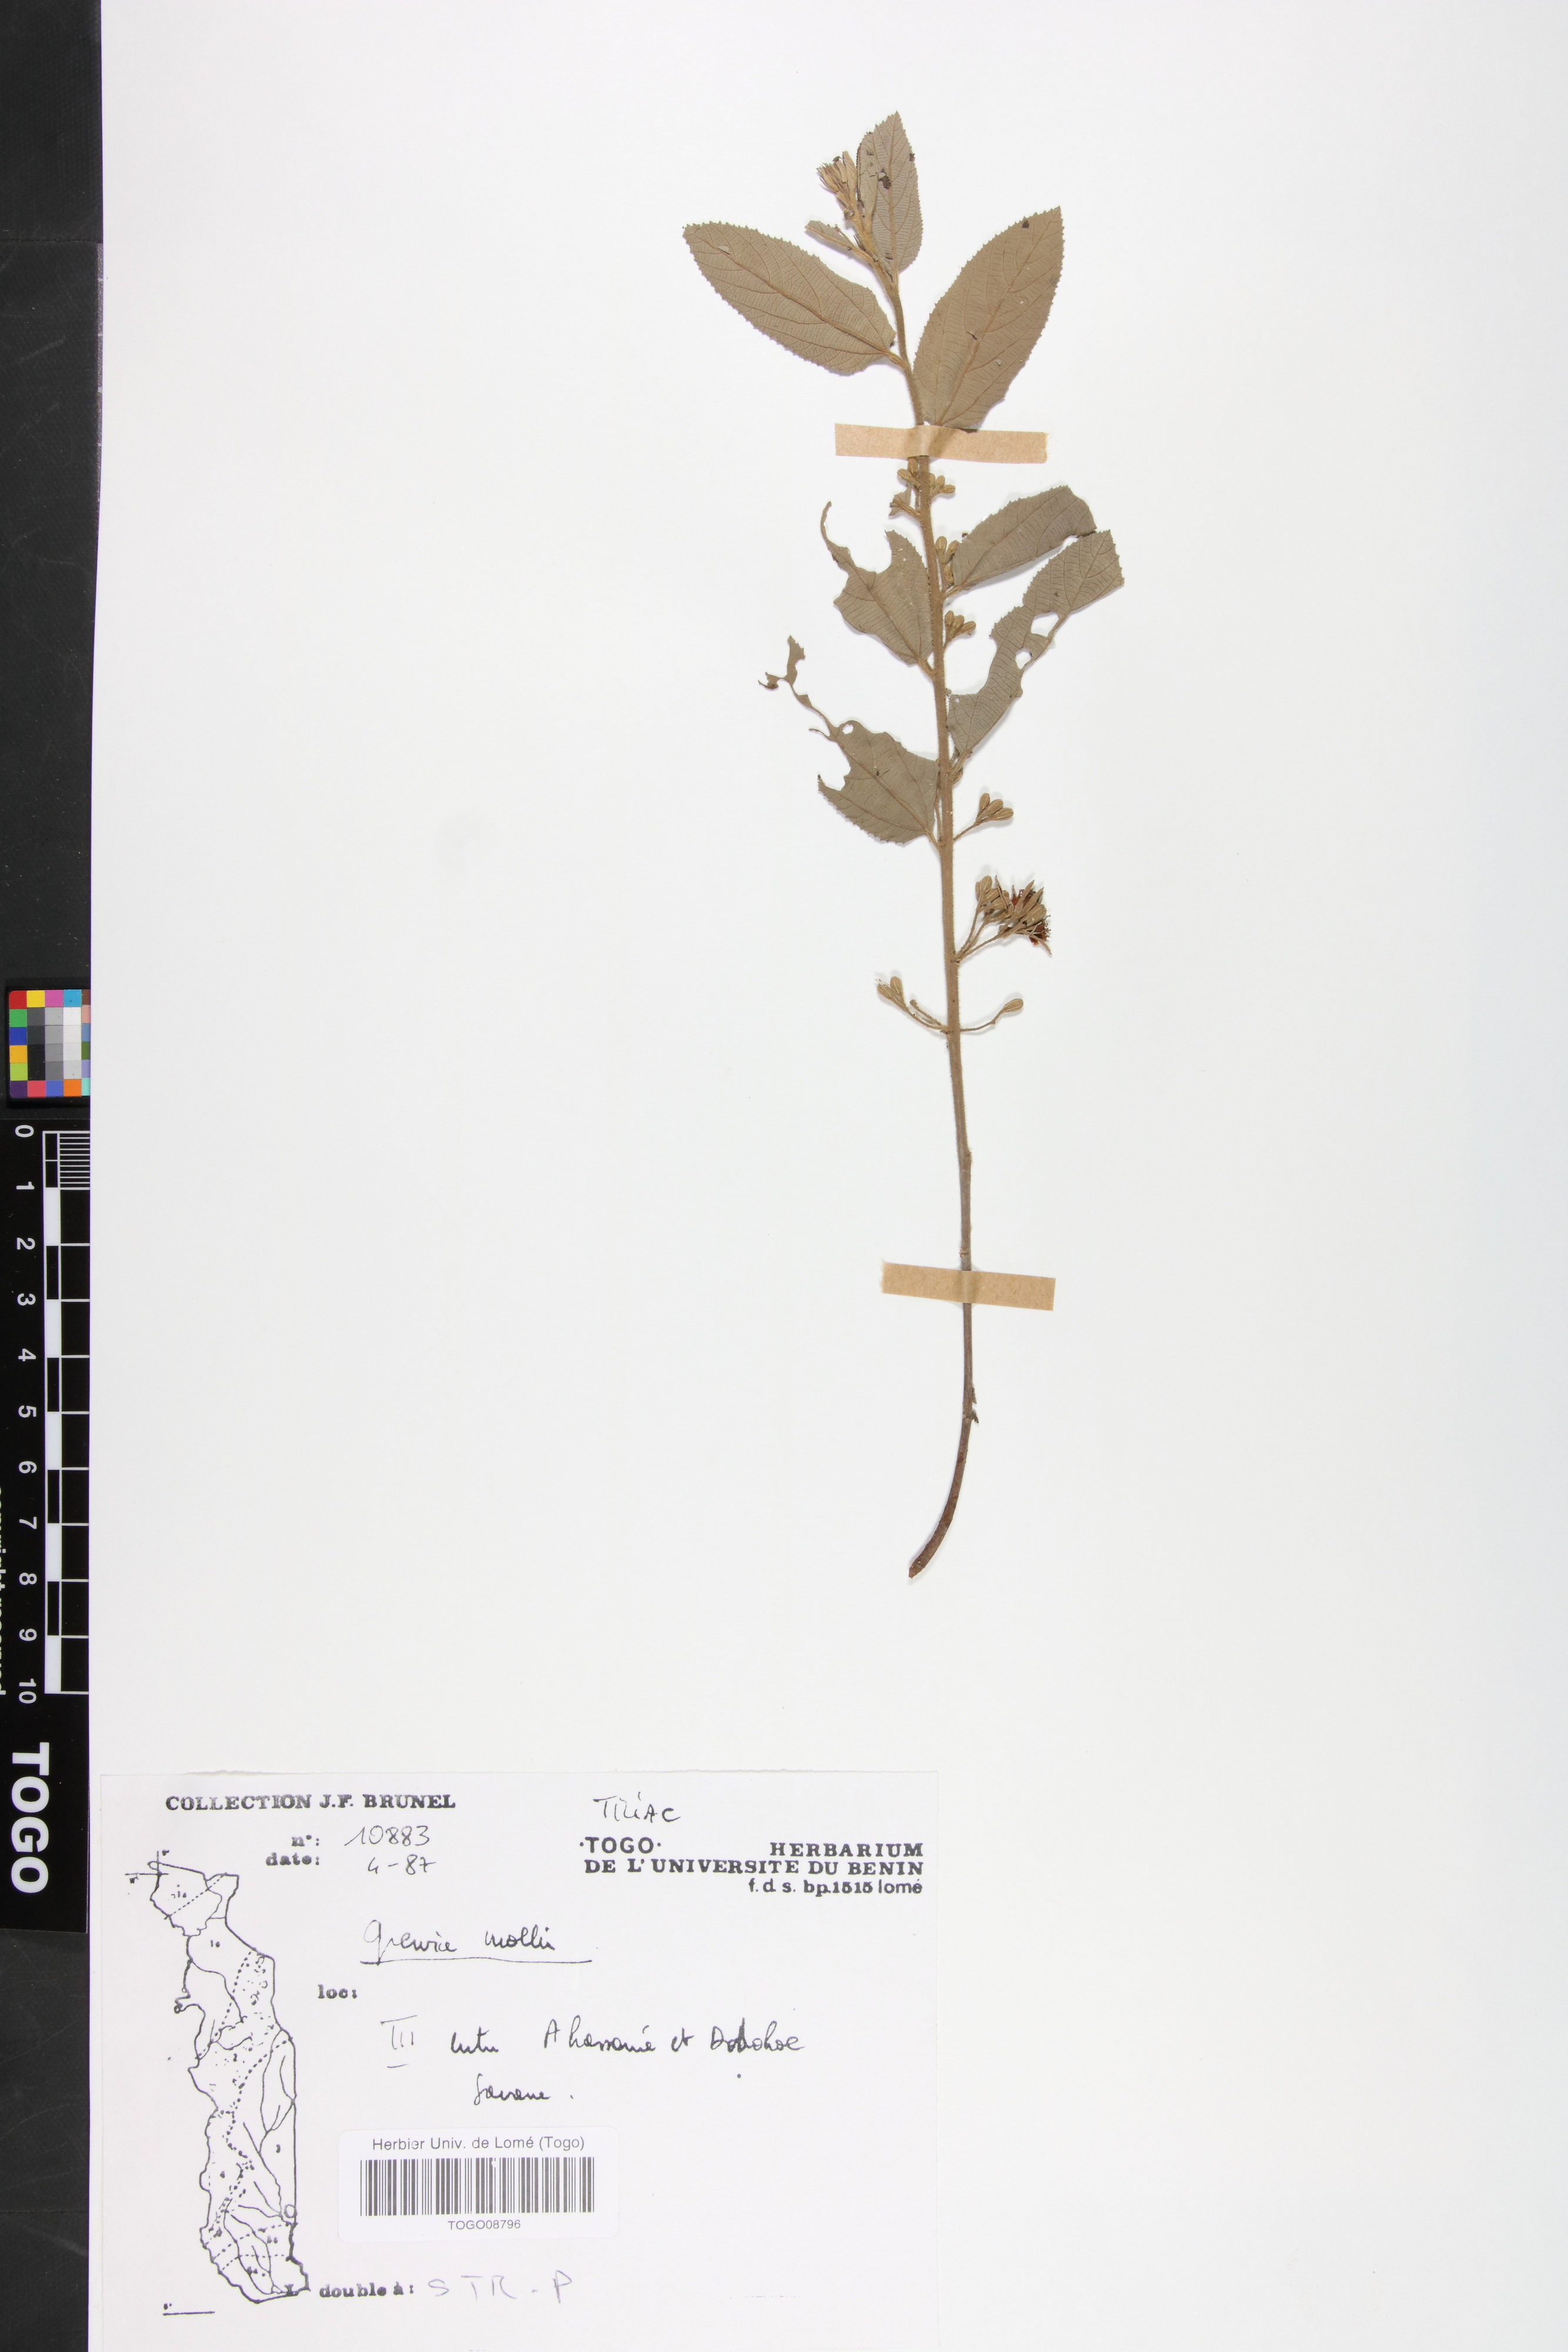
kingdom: Plantae
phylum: Tracheophyta
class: Magnoliopsida
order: Malvales
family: Malvaceae
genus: Grewia
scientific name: Grewia mollis
